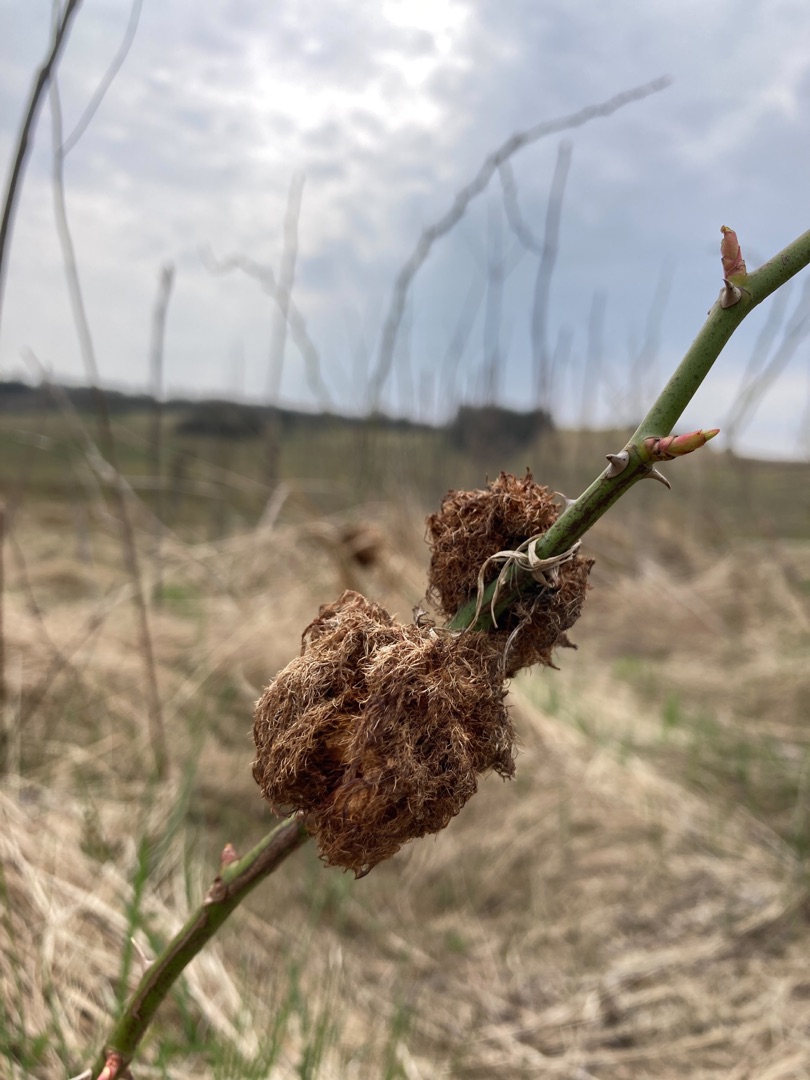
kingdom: Animalia
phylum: Arthropoda
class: Insecta
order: Hymenoptera
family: Cynipidae
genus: Diplolepis
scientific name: Diplolepis rosae
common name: Bedeguargalhveps
